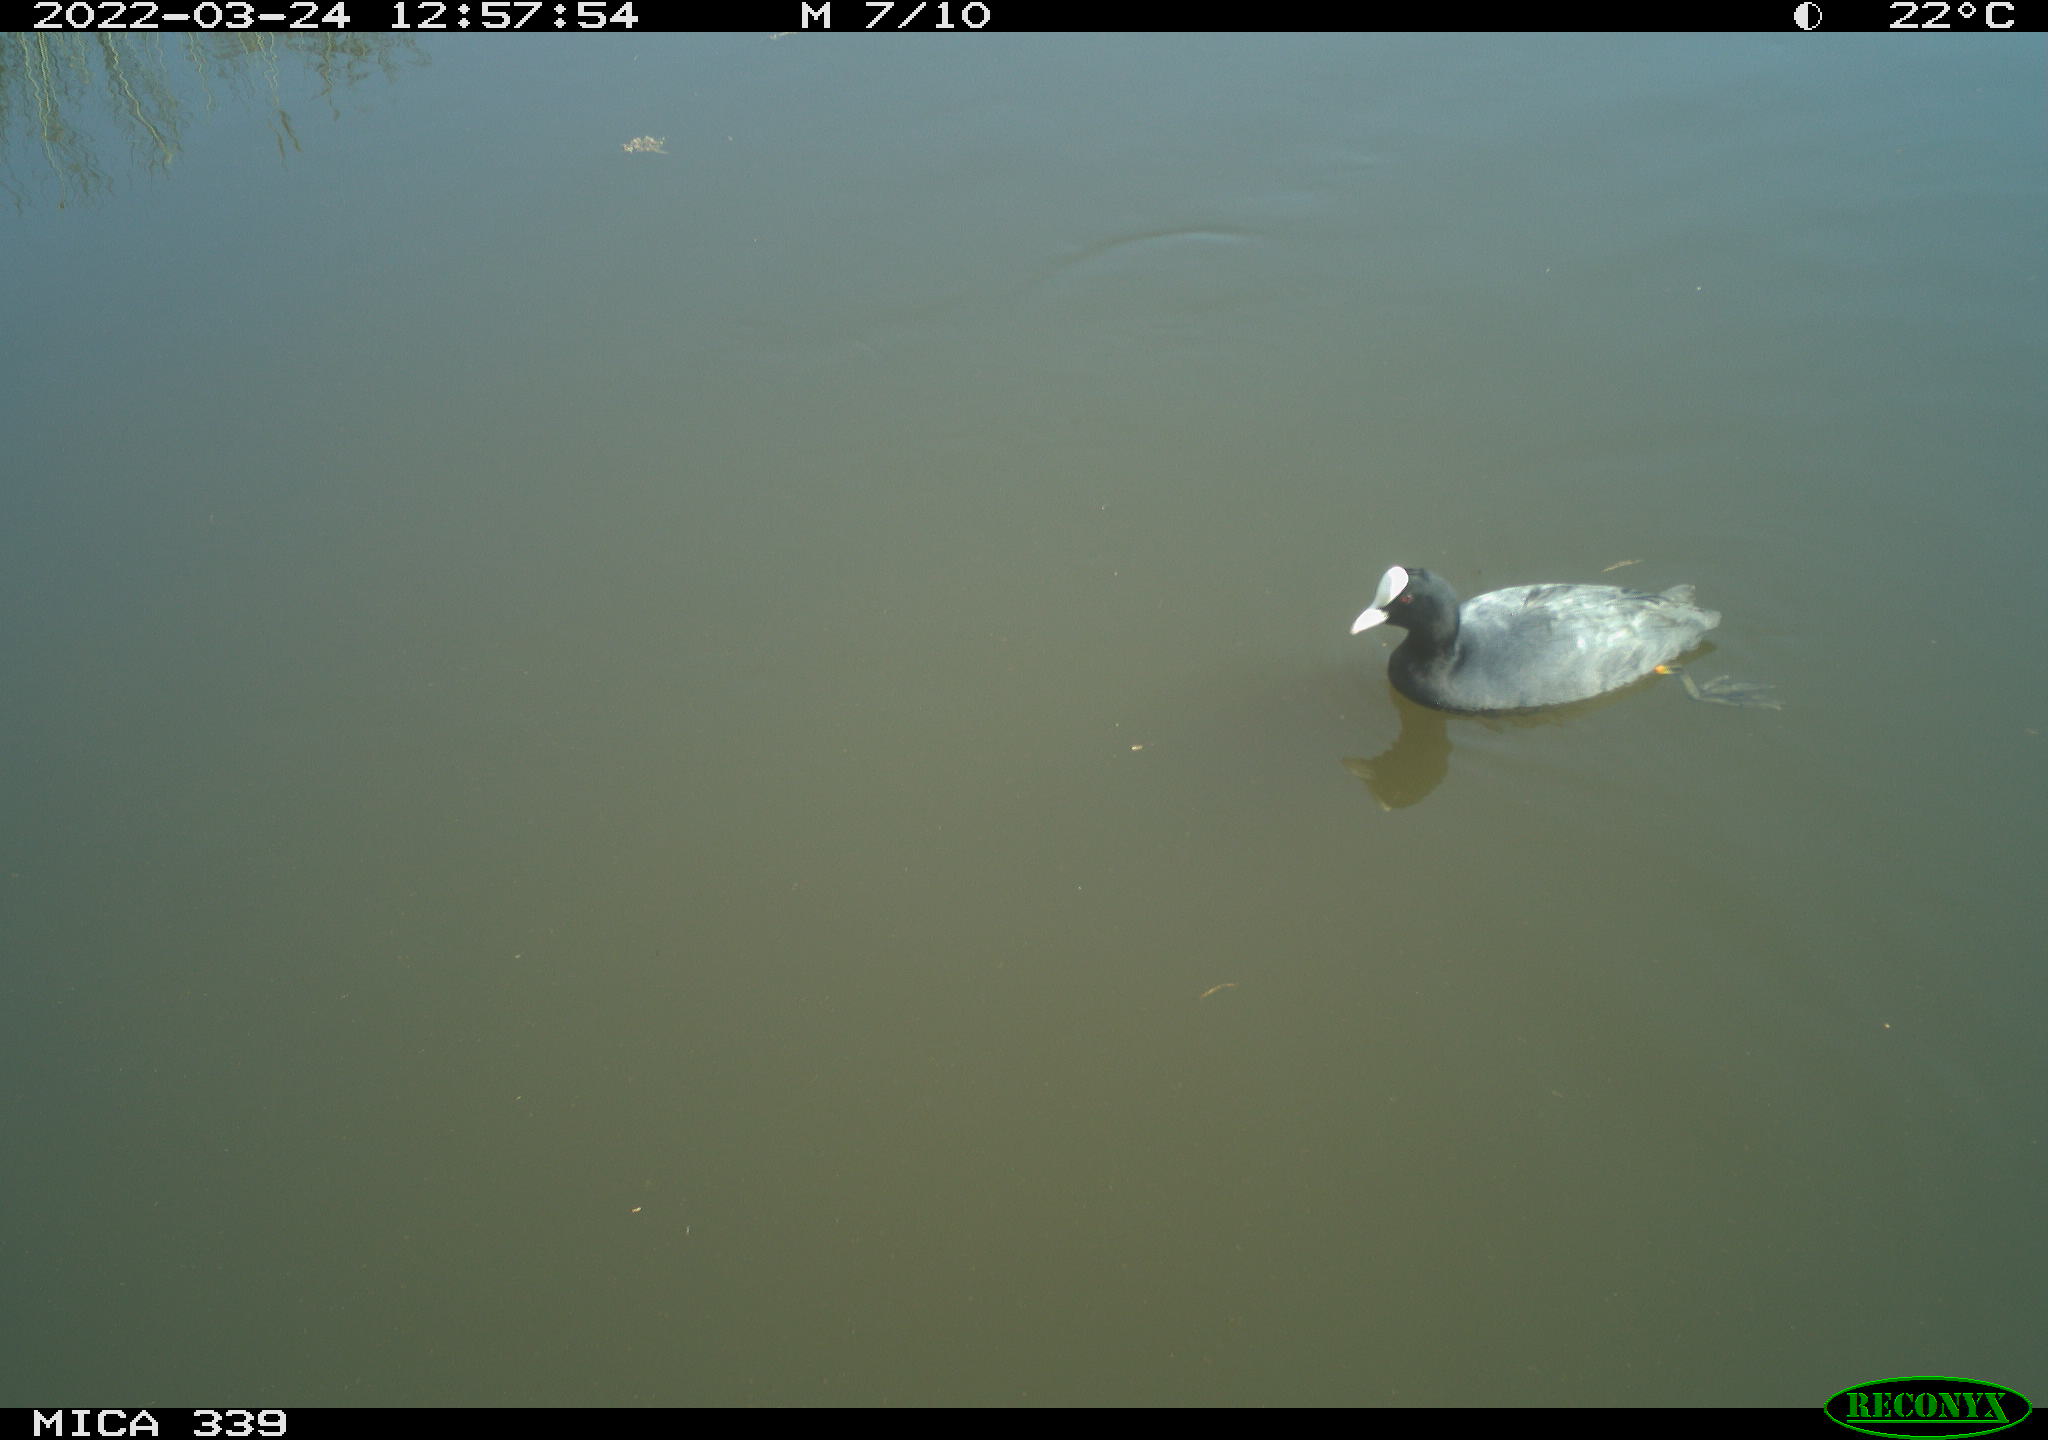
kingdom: Animalia
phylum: Chordata
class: Aves
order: Gruiformes
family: Rallidae
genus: Fulica
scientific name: Fulica atra
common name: Eurasian coot
